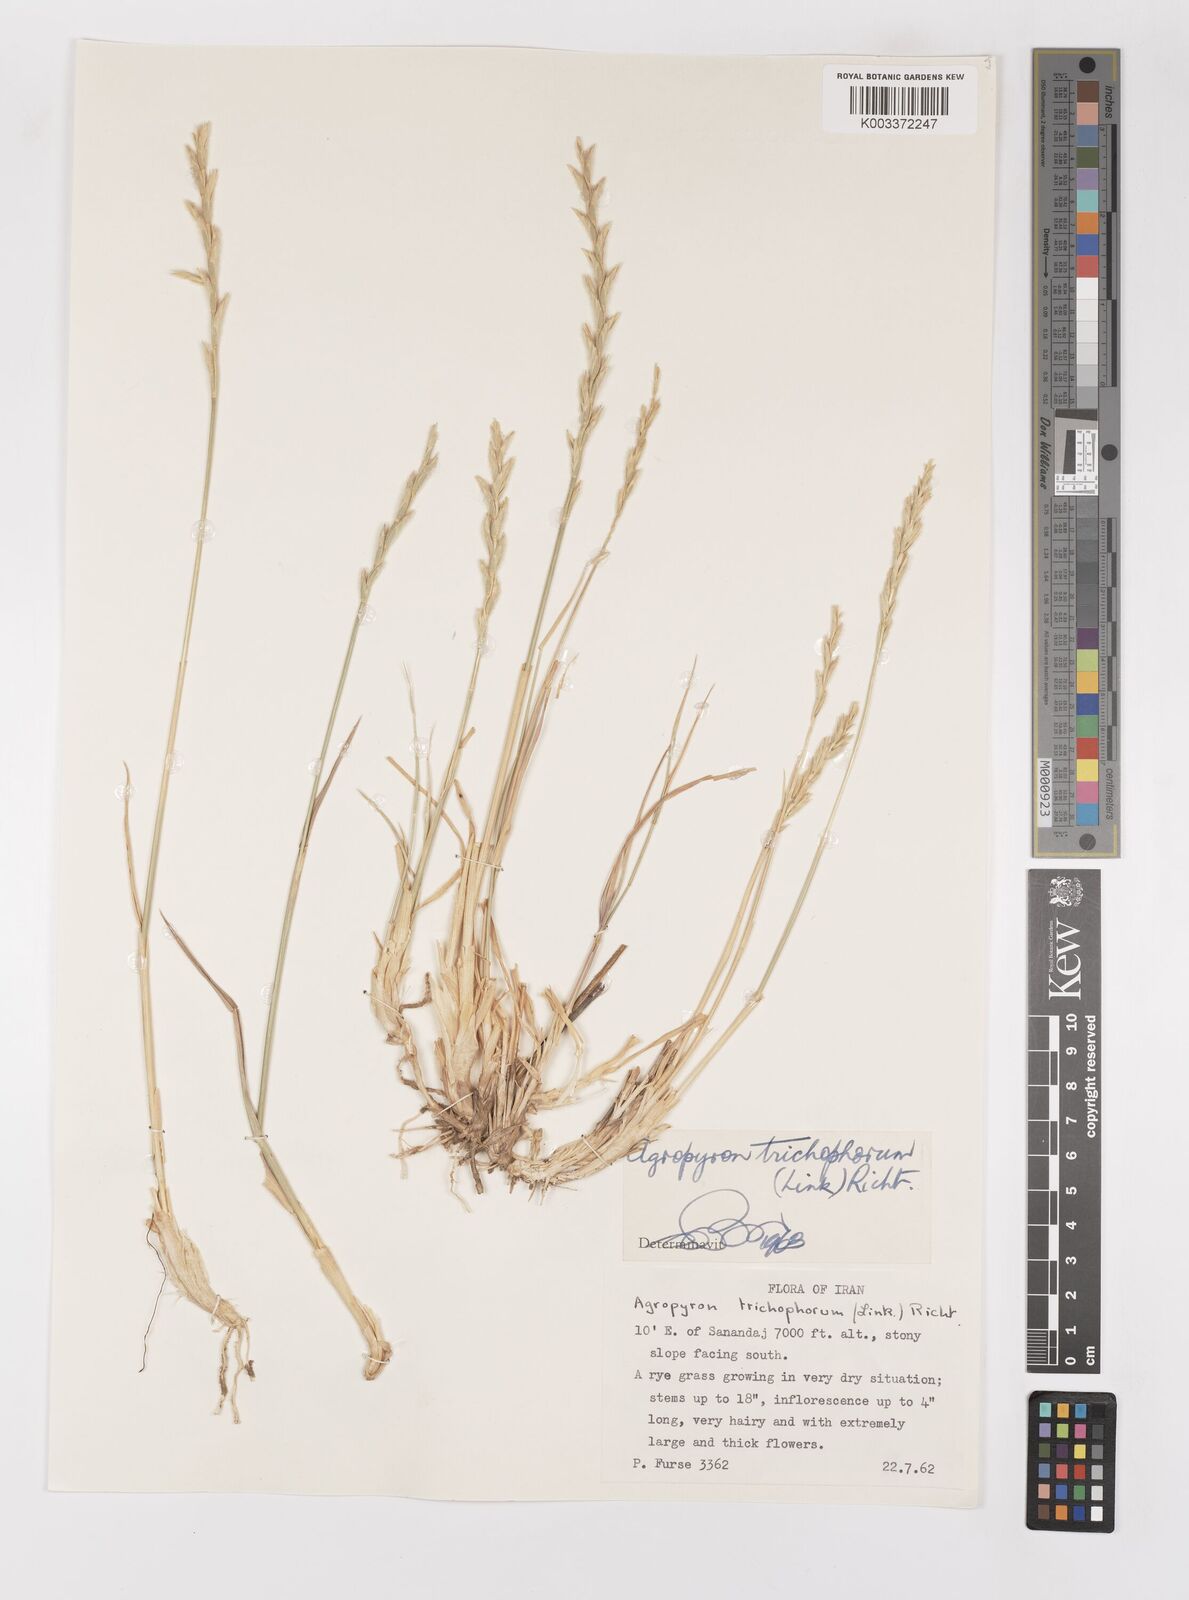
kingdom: Plantae
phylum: Tracheophyta
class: Liliopsida
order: Poales
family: Poaceae
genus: Thinopyrum
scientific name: Thinopyrum intermedium
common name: Intermediate wheatgrass
